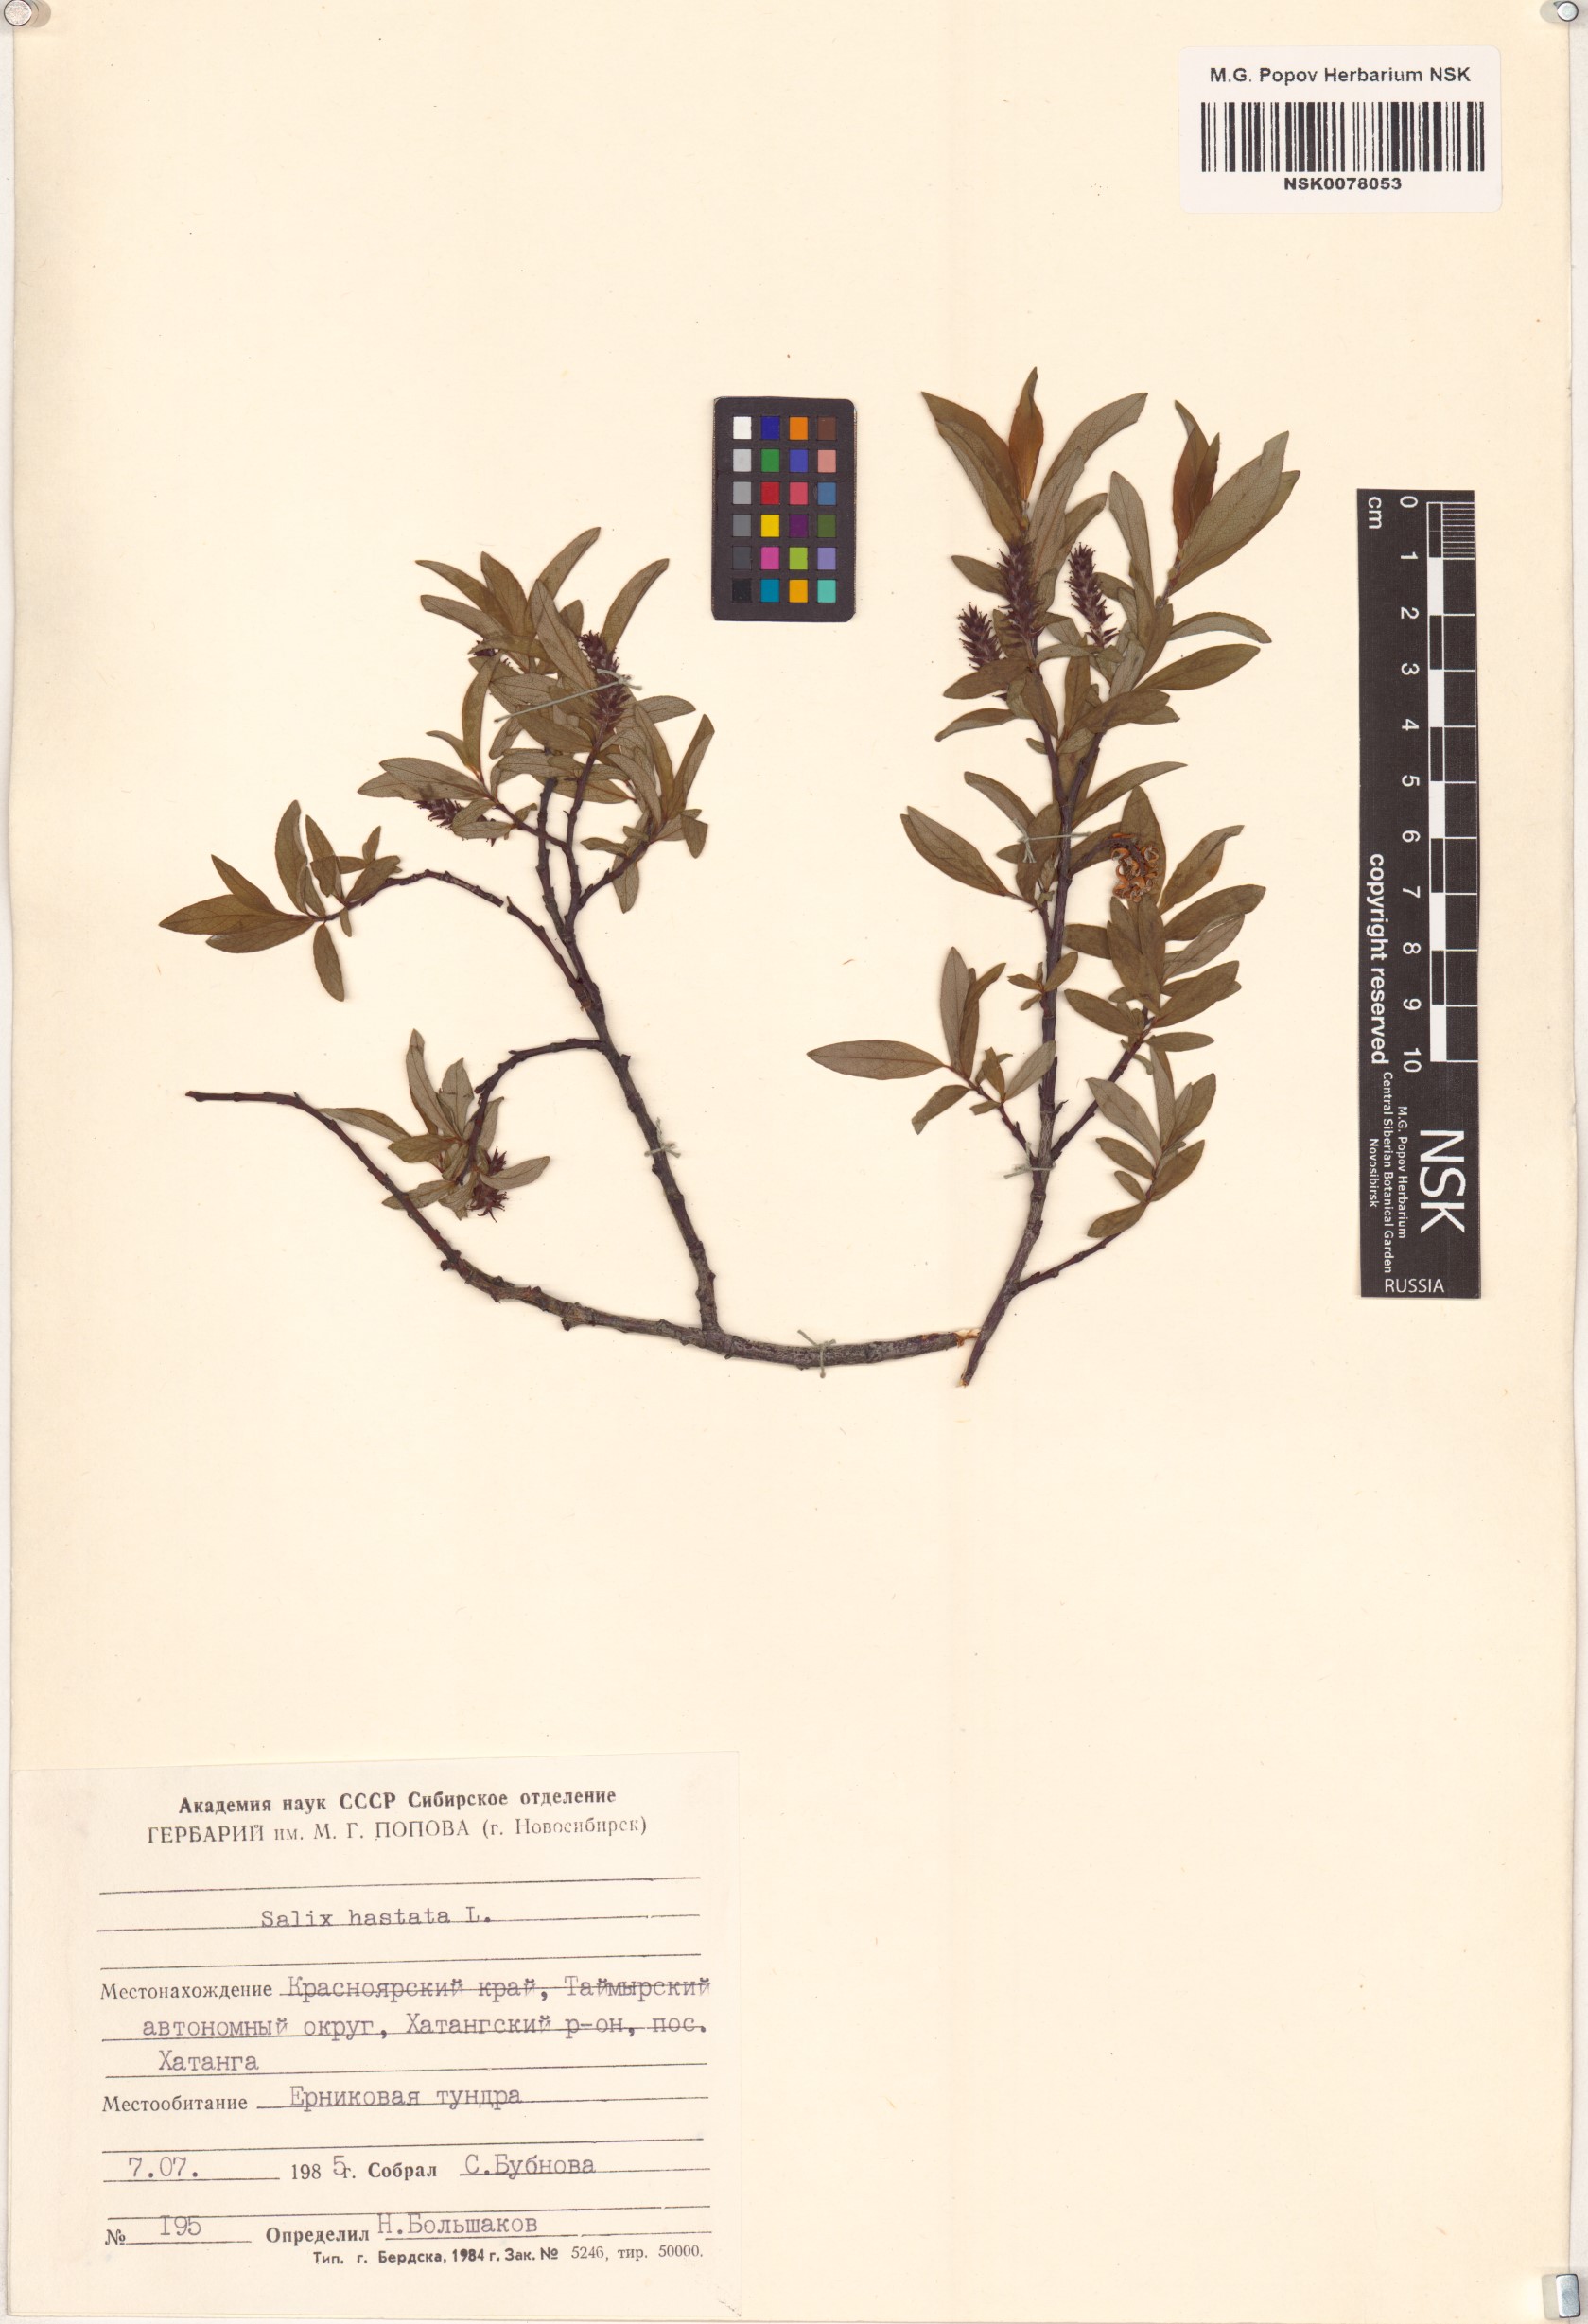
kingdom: Plantae
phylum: Tracheophyta
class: Magnoliopsida
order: Malpighiales
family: Salicaceae
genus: Salix
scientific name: Salix hastata
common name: Halberd willow
